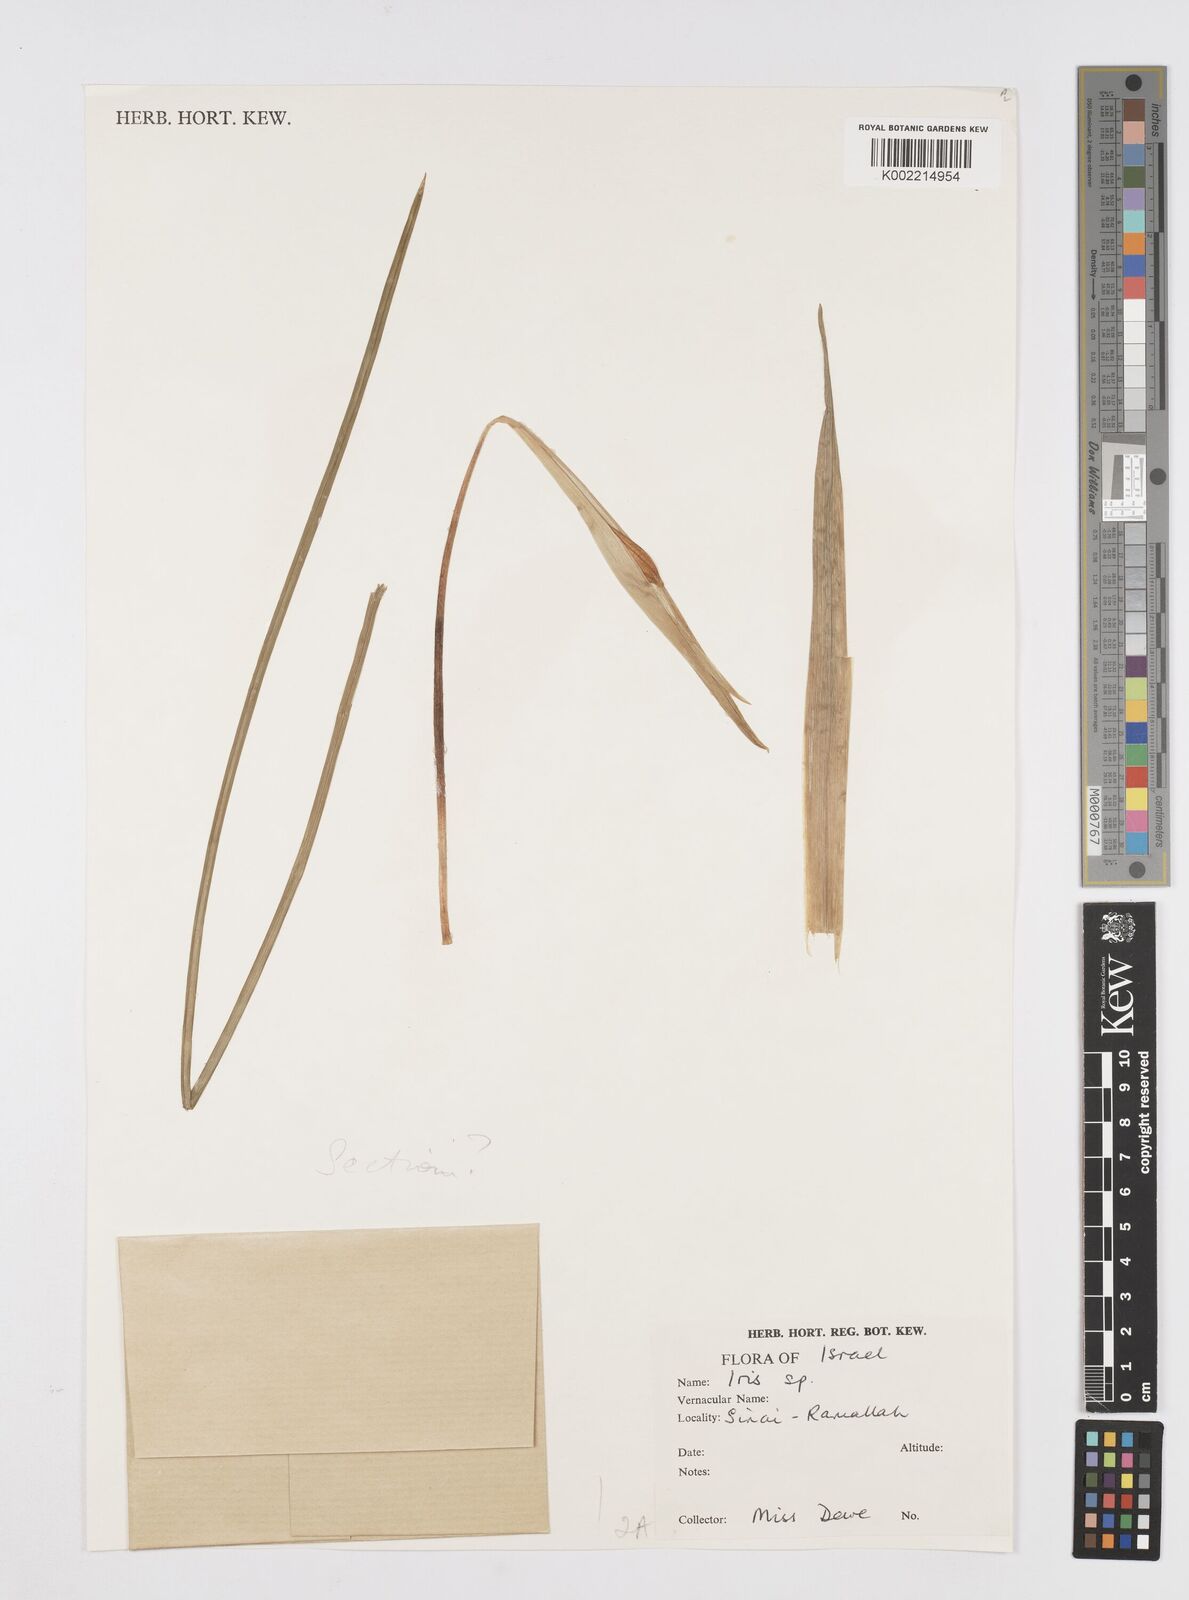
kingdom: Plantae
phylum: Tracheophyta
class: Liliopsida
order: Asparagales
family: Iridaceae
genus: Iris
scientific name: Iris regis-uzziae
